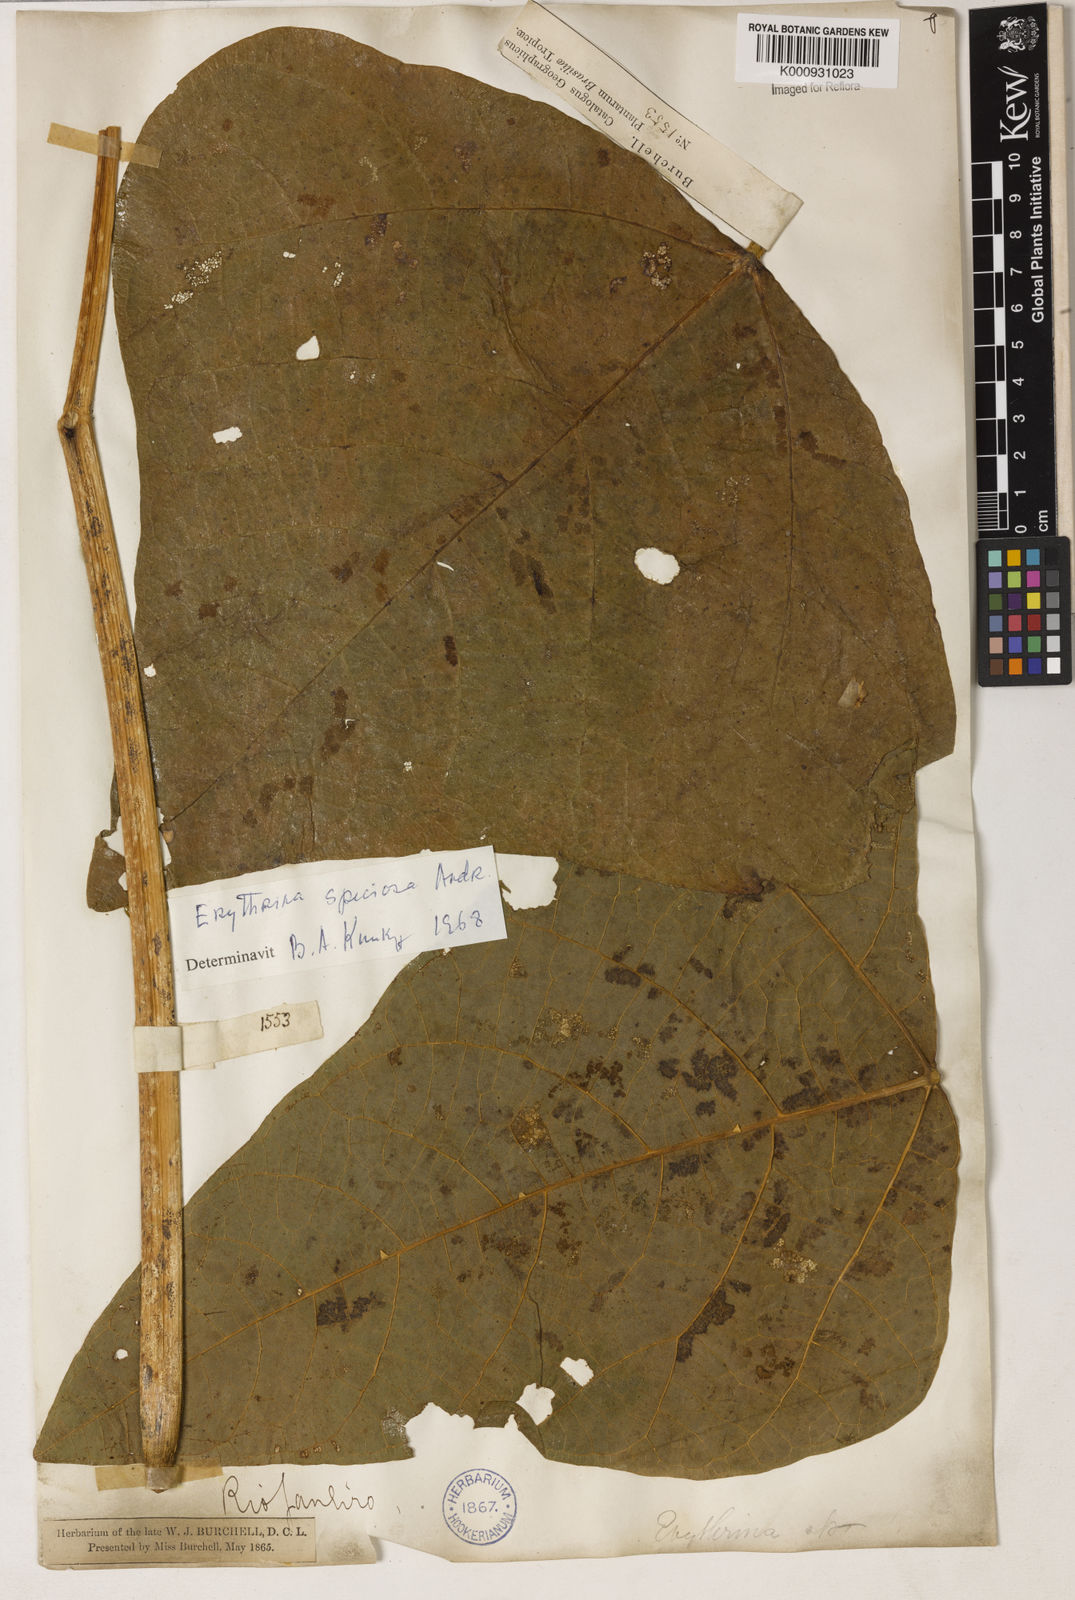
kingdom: Plantae
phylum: Tracheophyta
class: Magnoliopsida
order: Fabales
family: Fabaceae
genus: Erythrina
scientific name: Erythrina speciosa
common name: Coral tree
